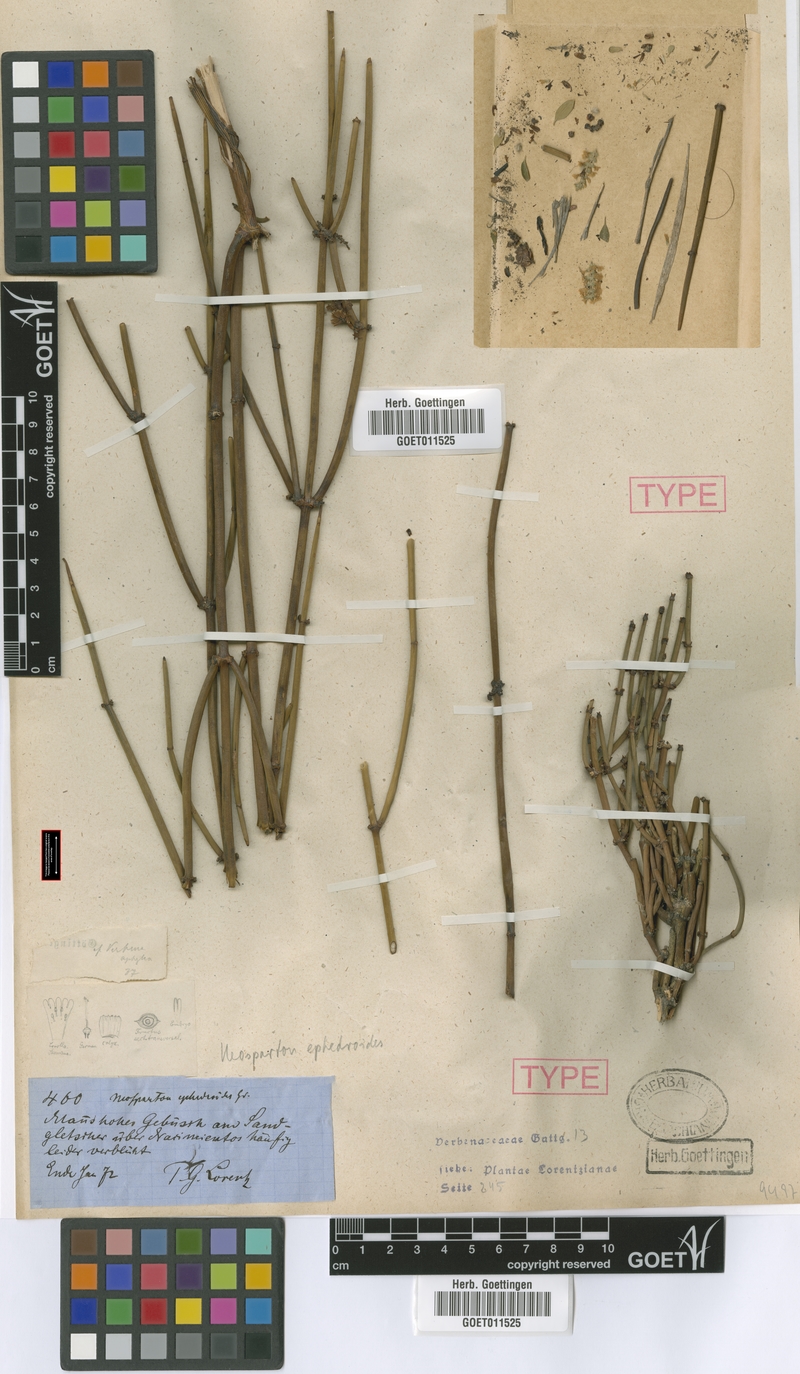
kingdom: Plantae
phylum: Tracheophyta
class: Magnoliopsida
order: Lamiales
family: Verbenaceae
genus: Neosparton
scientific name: Neosparton ephedroides
